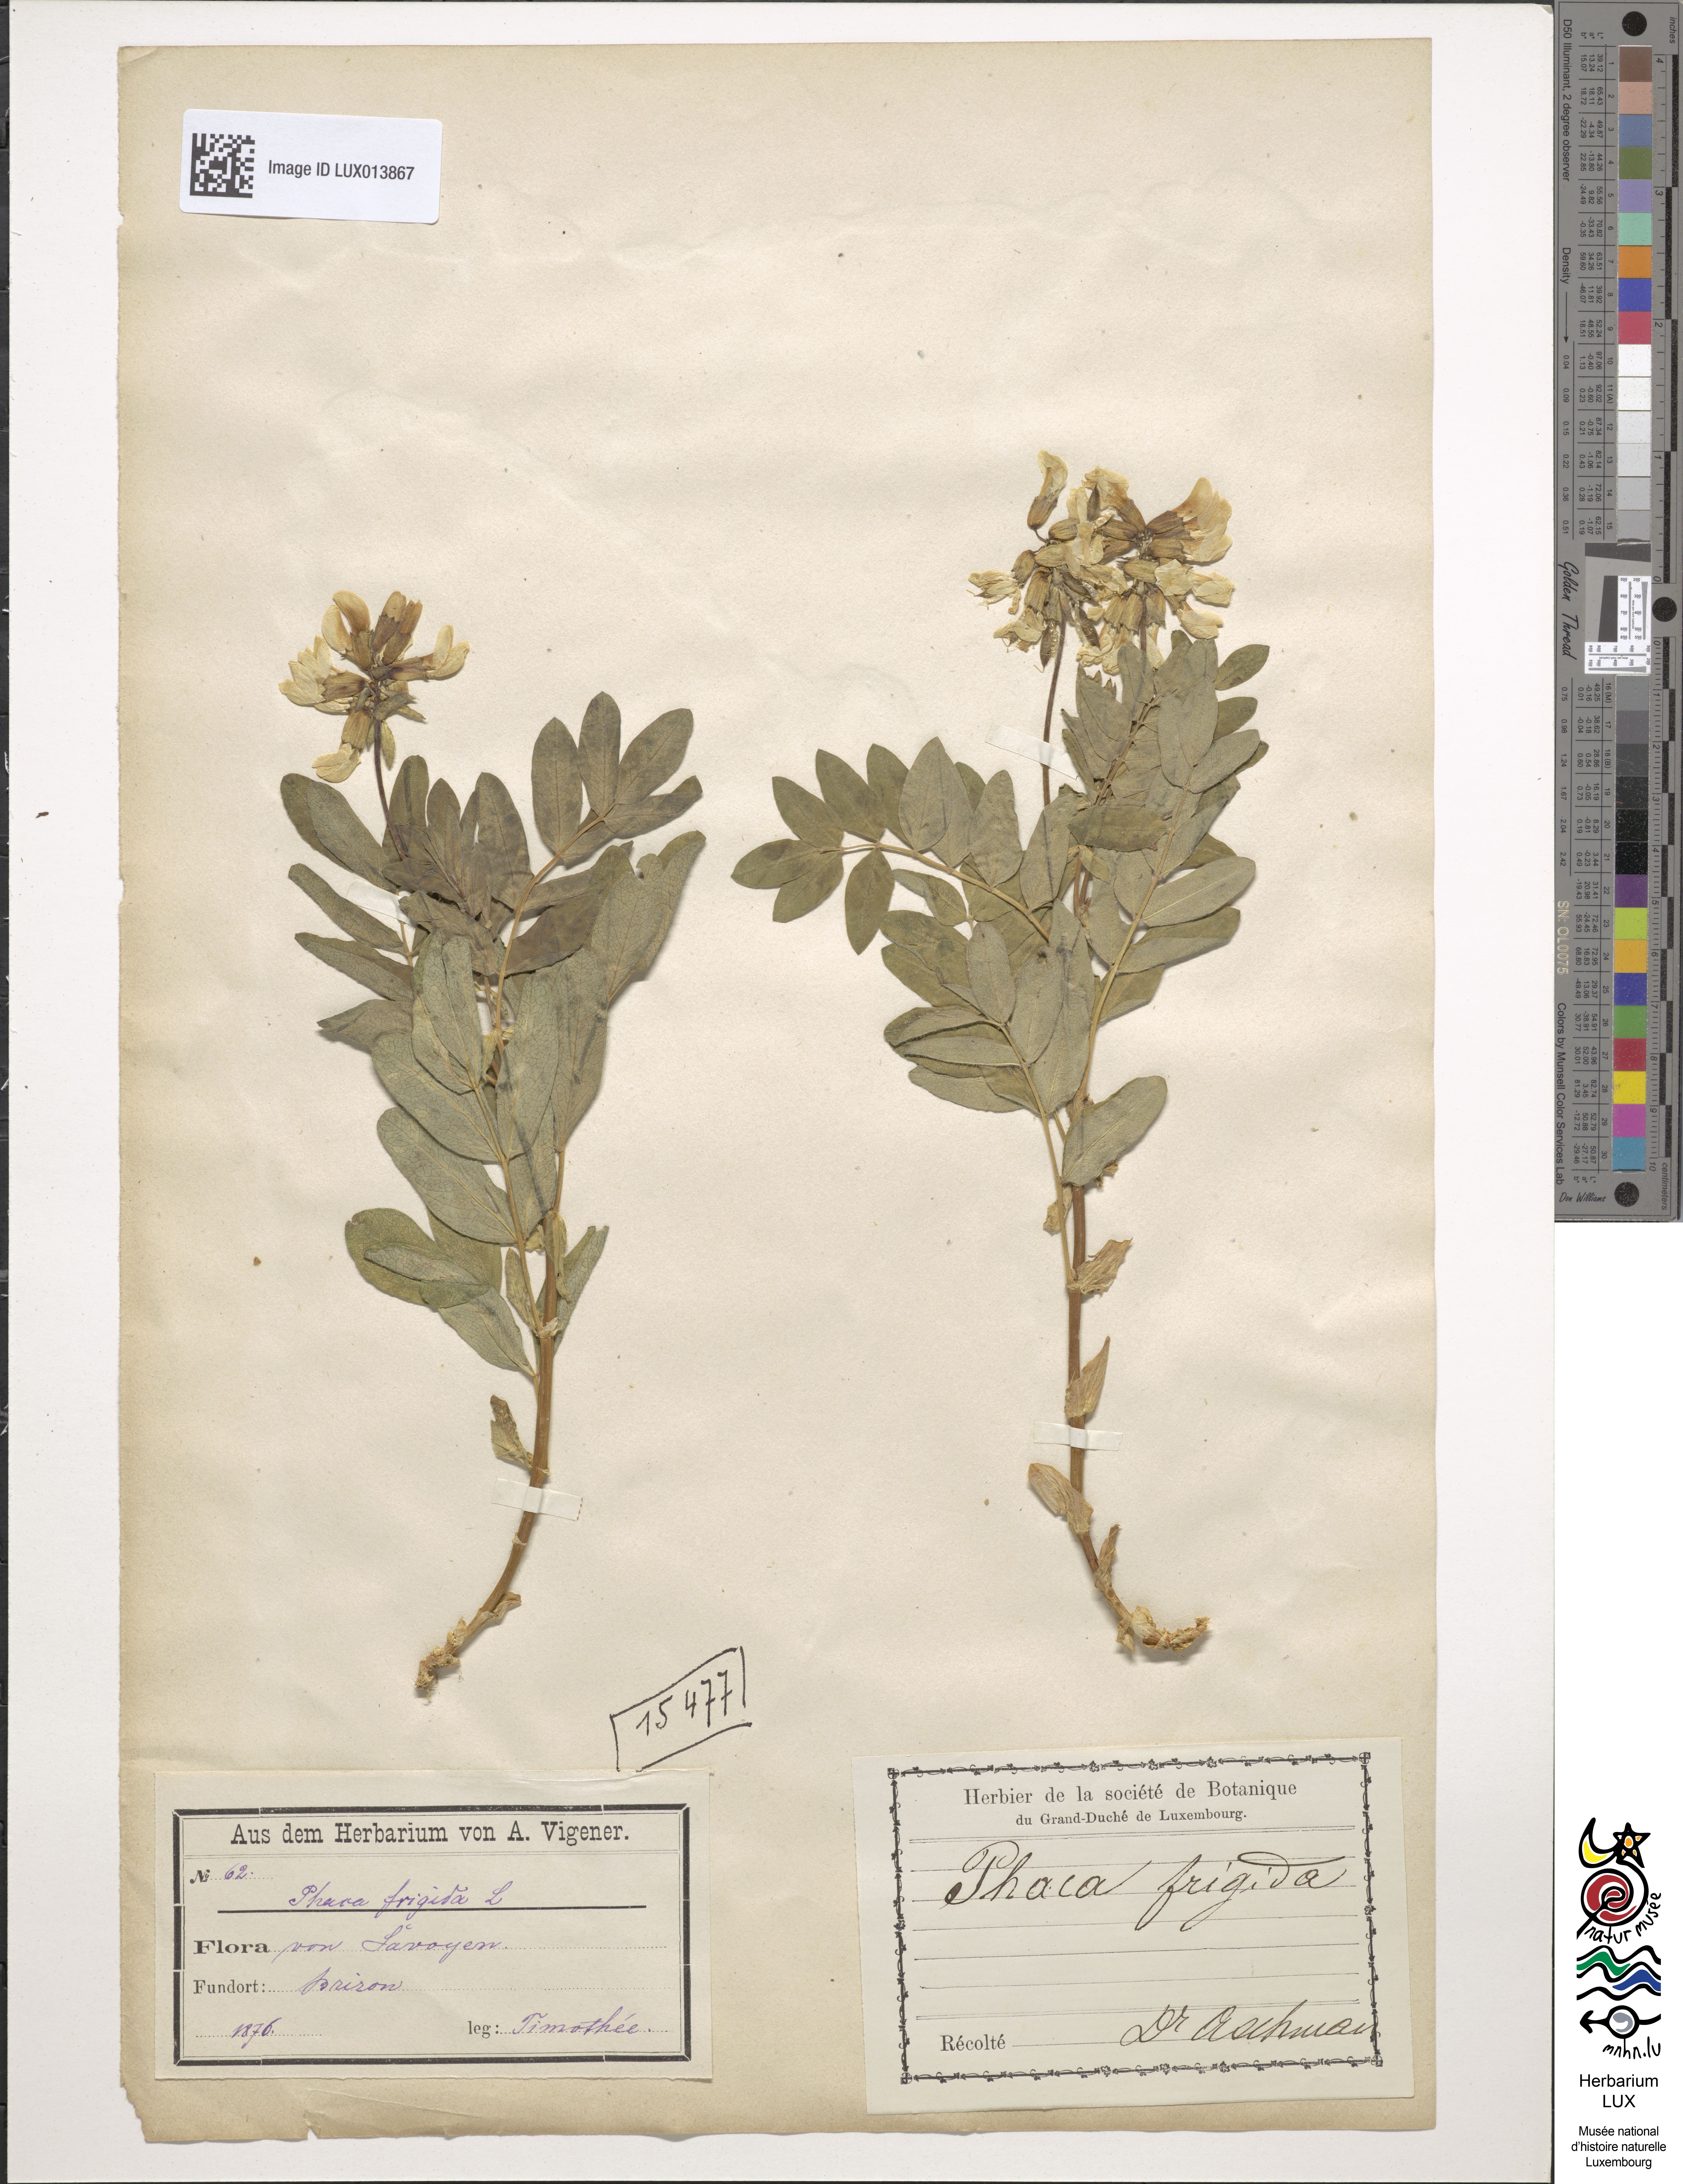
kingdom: Plantae
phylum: Tracheophyta
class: Magnoliopsida
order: Fabales
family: Fabaceae
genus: Astragalus
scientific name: Astragalus frigidus
